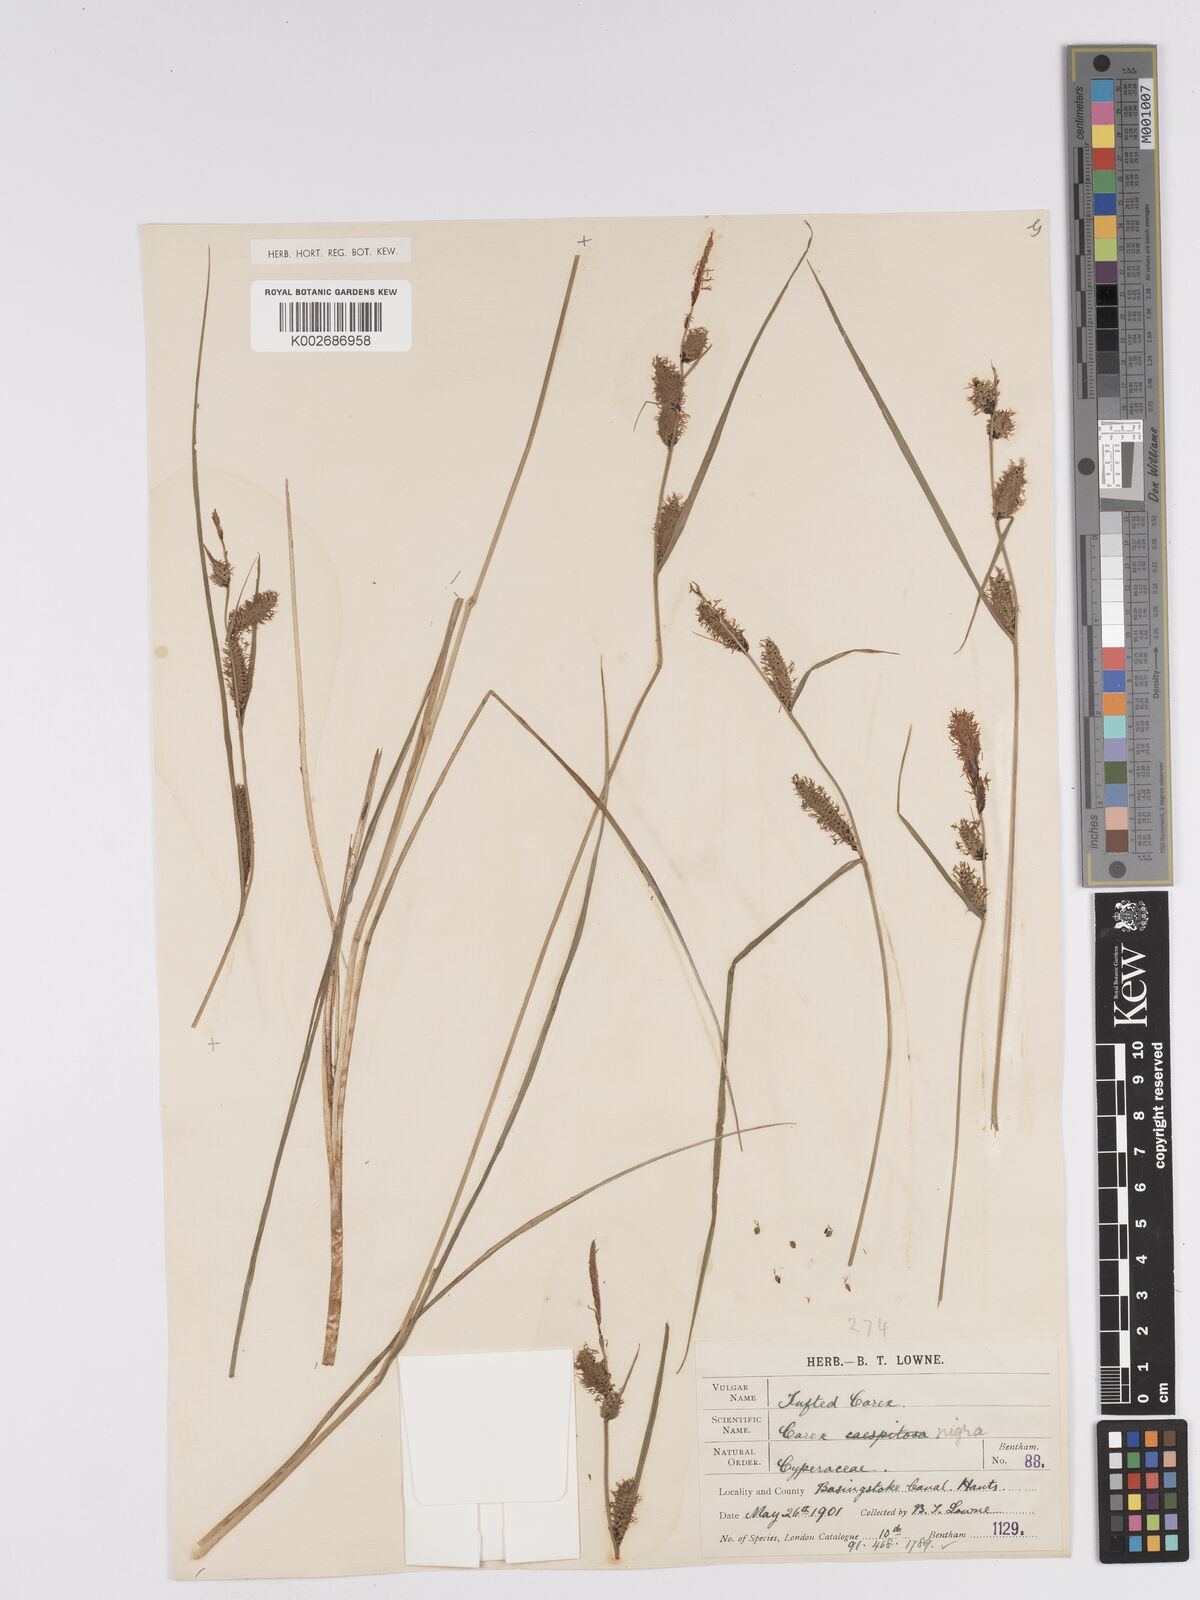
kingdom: Plantae
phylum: Tracheophyta
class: Liliopsida
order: Poales
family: Cyperaceae
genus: Carex
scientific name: Carex nigra
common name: Common sedge
